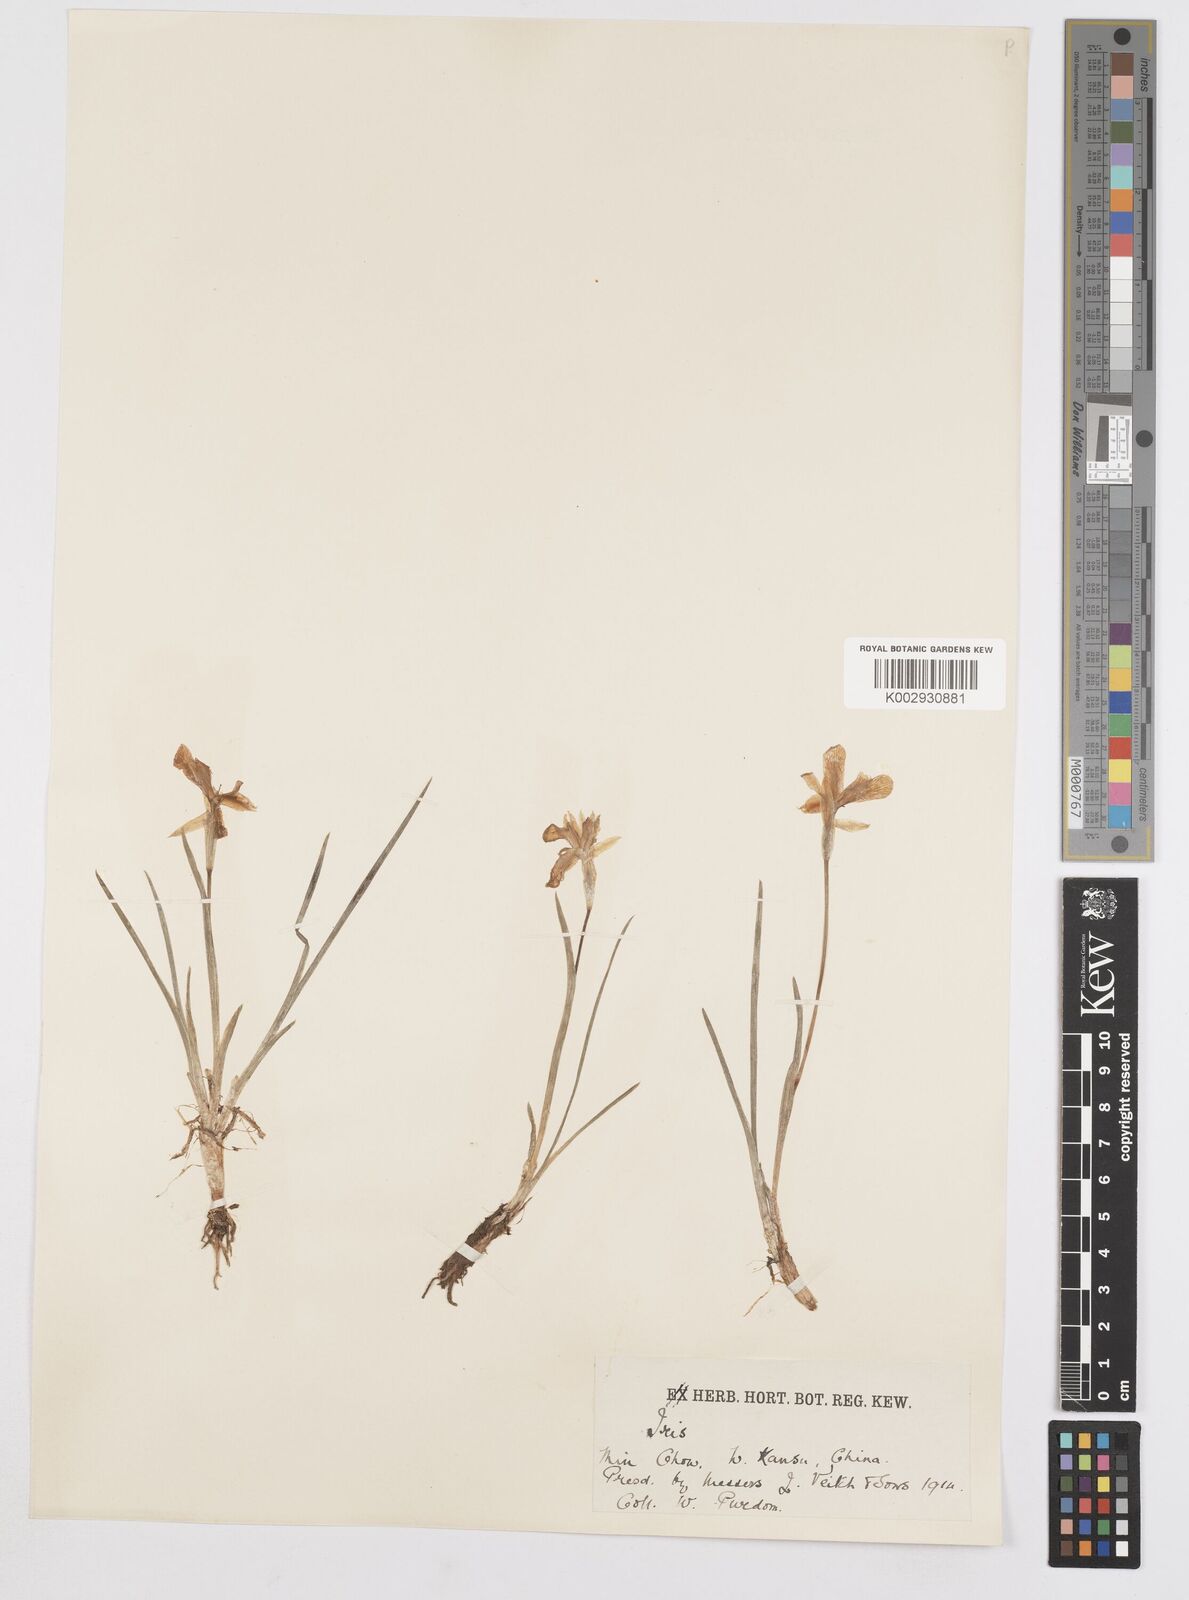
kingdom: Plantae
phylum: Tracheophyta
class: Liliopsida
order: Asparagales
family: Iridaceae
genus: Iris
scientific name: Iris goniocarpa
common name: Angular-fruit iris
